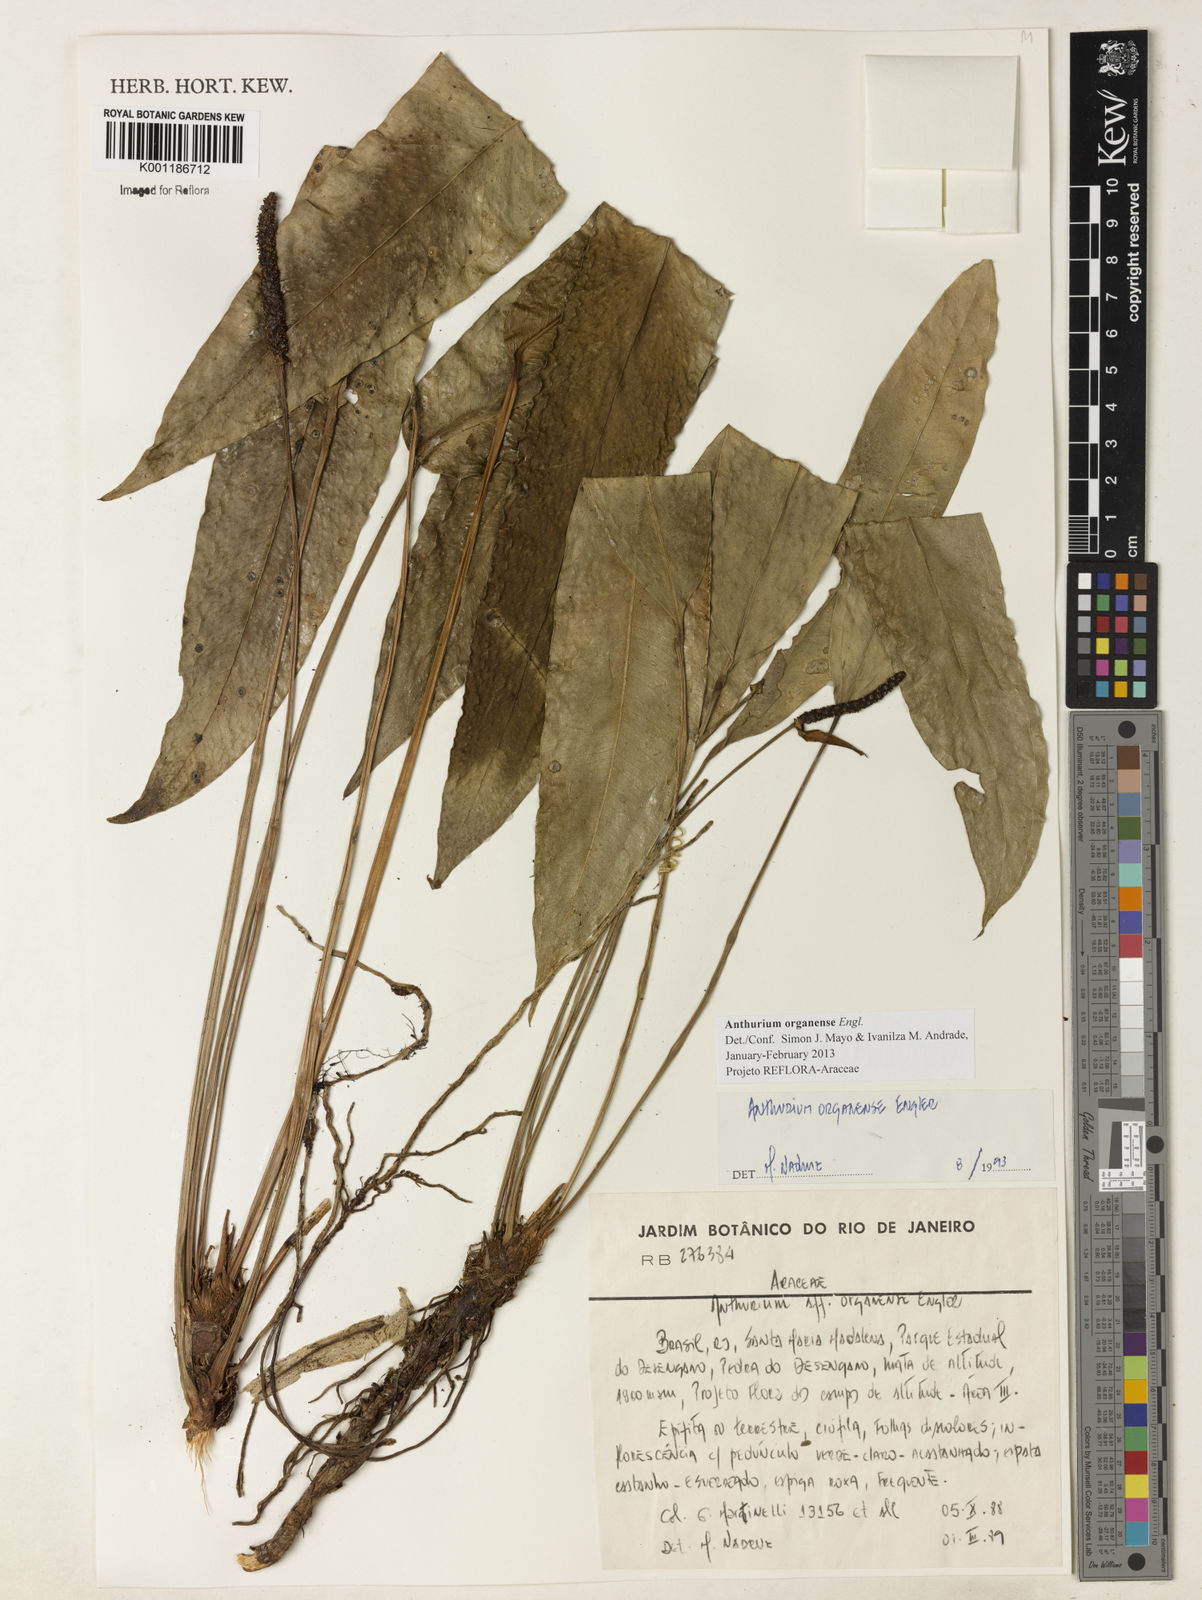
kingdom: Plantae
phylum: Tracheophyta
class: Liliopsida
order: Alismatales
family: Araceae
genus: Anthurium
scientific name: Anthurium organense
